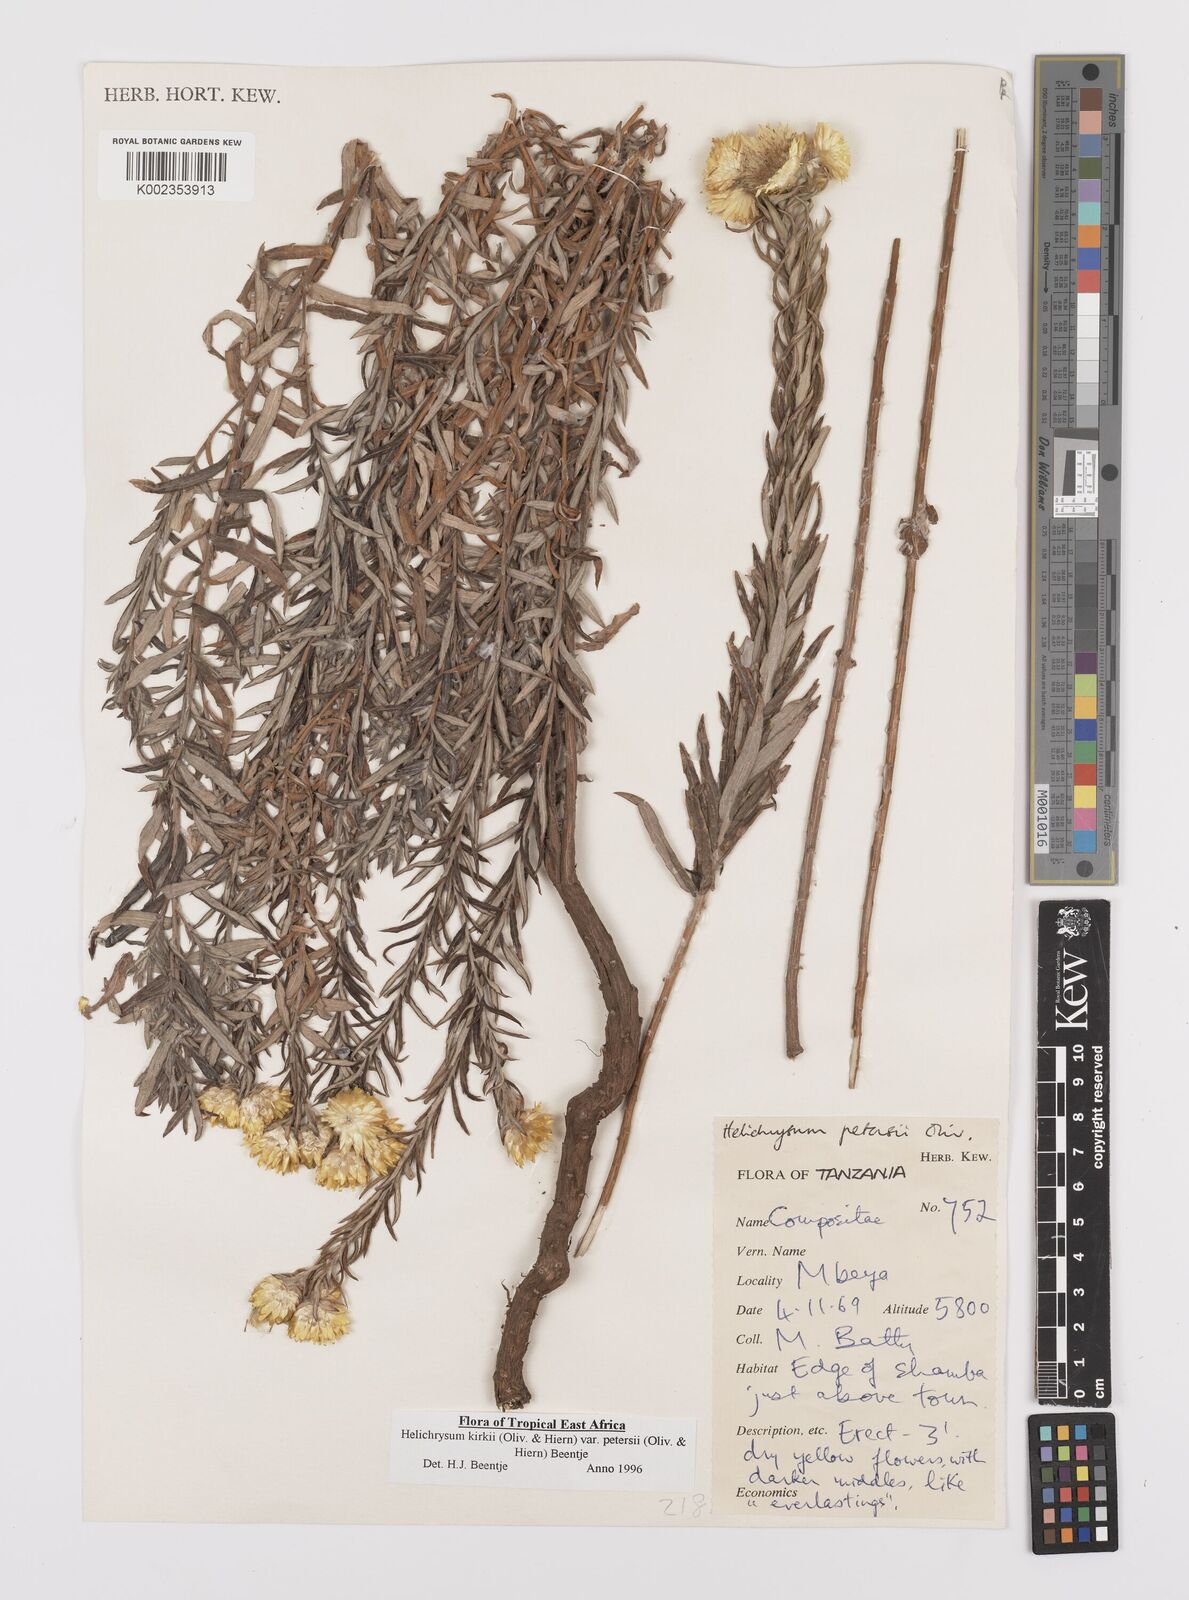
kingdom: Plantae
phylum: Tracheophyta
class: Magnoliopsida
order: Asterales
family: Asteraceae
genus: Helichrysum
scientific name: Helichrysum kirkii
